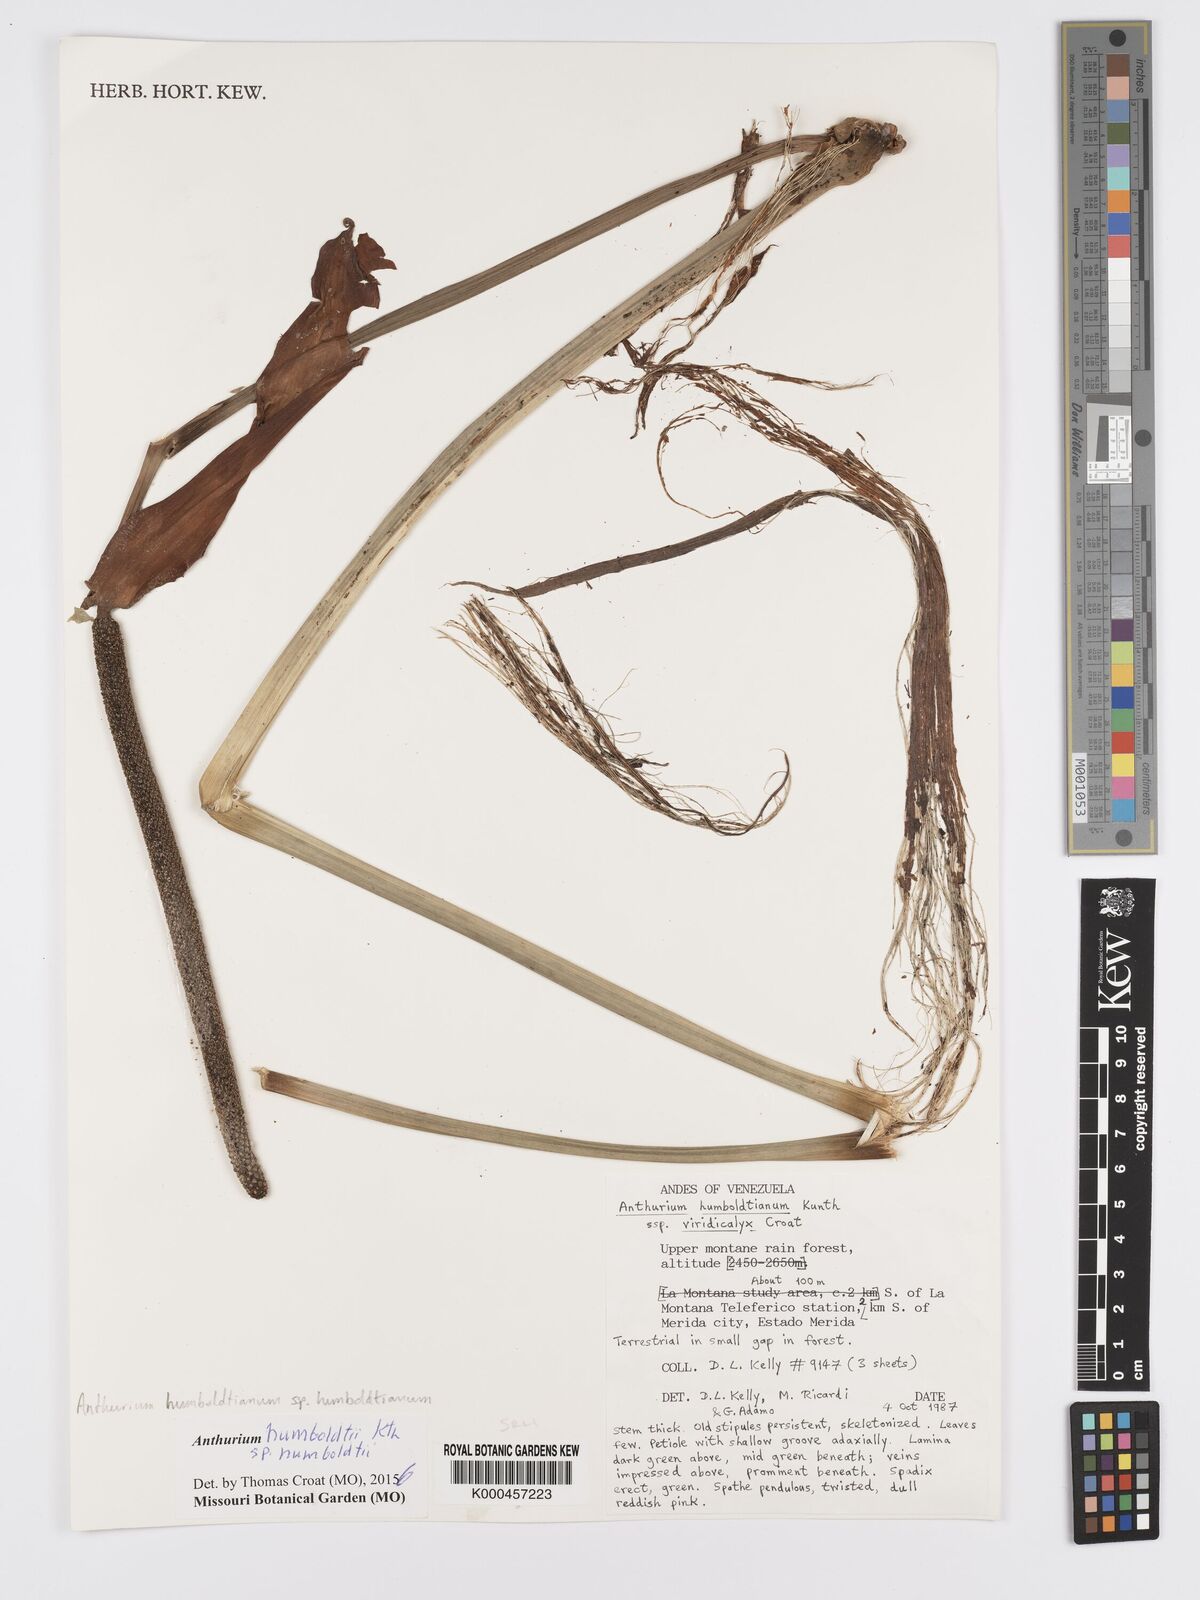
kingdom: Plantae
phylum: Tracheophyta
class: Liliopsida
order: Alismatales
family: Araceae
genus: Anthurium
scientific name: Anthurium martae
